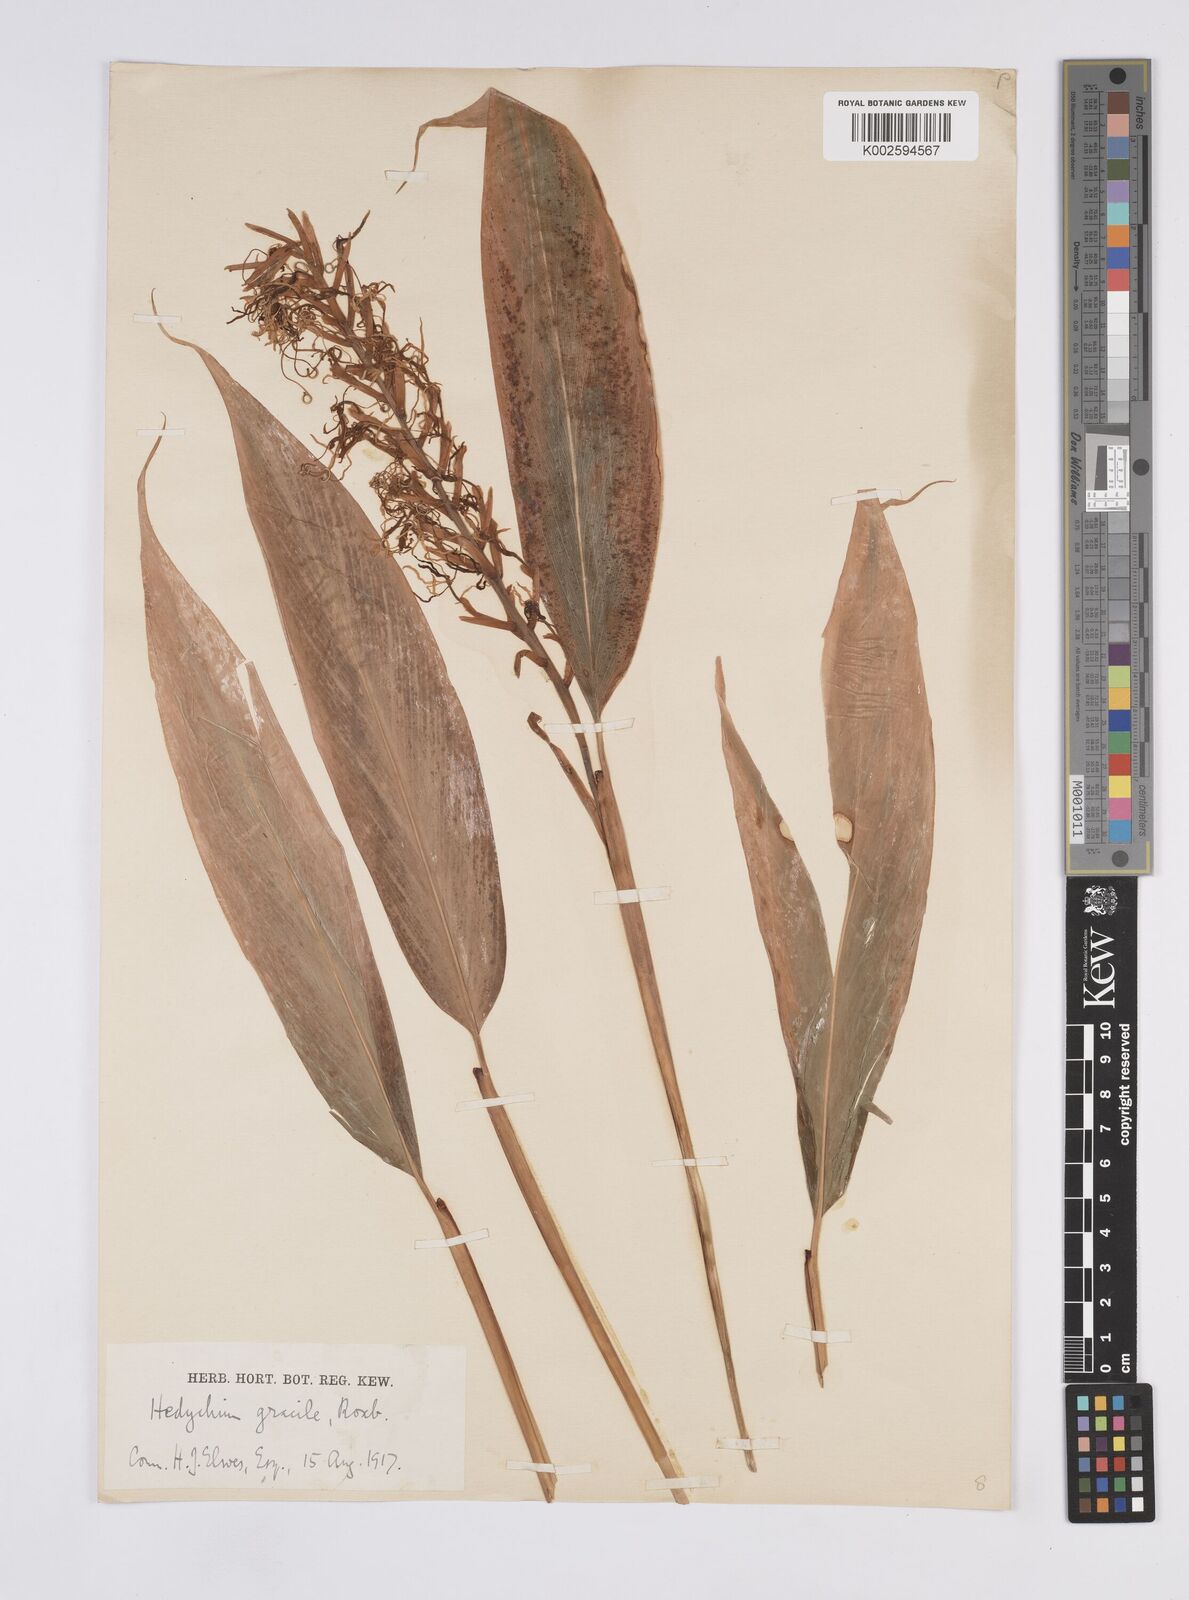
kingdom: Plantae
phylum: Tracheophyta
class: Liliopsida
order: Zingiberales
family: Zingiberaceae
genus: Hedychium
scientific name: Hedychium glaucum
